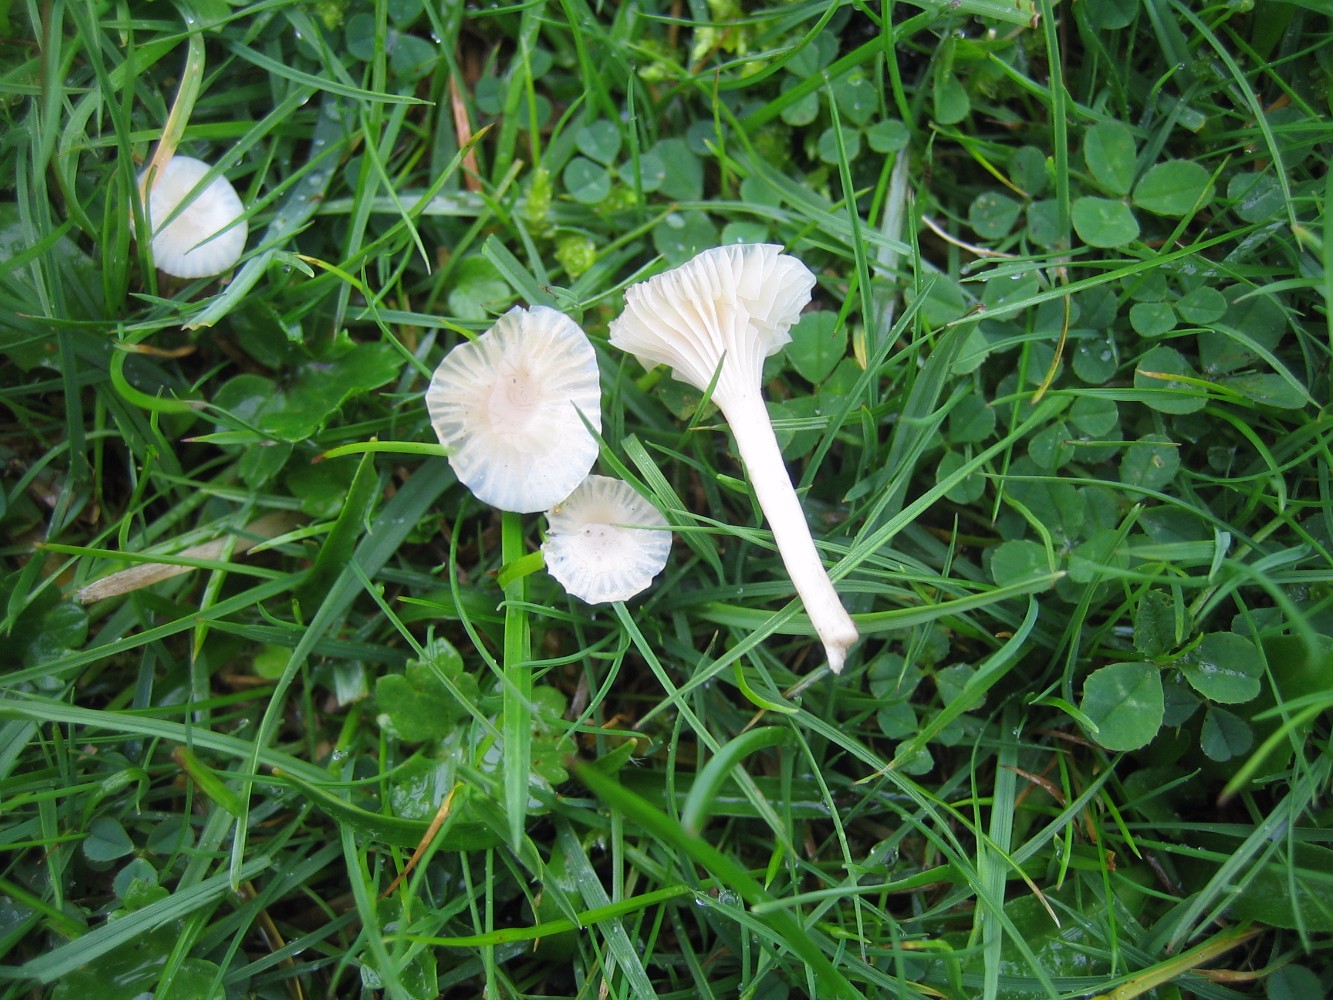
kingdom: Fungi
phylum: Basidiomycota
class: Agaricomycetes
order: Agaricales
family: Hygrophoraceae
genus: Cuphophyllus
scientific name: Cuphophyllus virgineus
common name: snehvid vokshat
